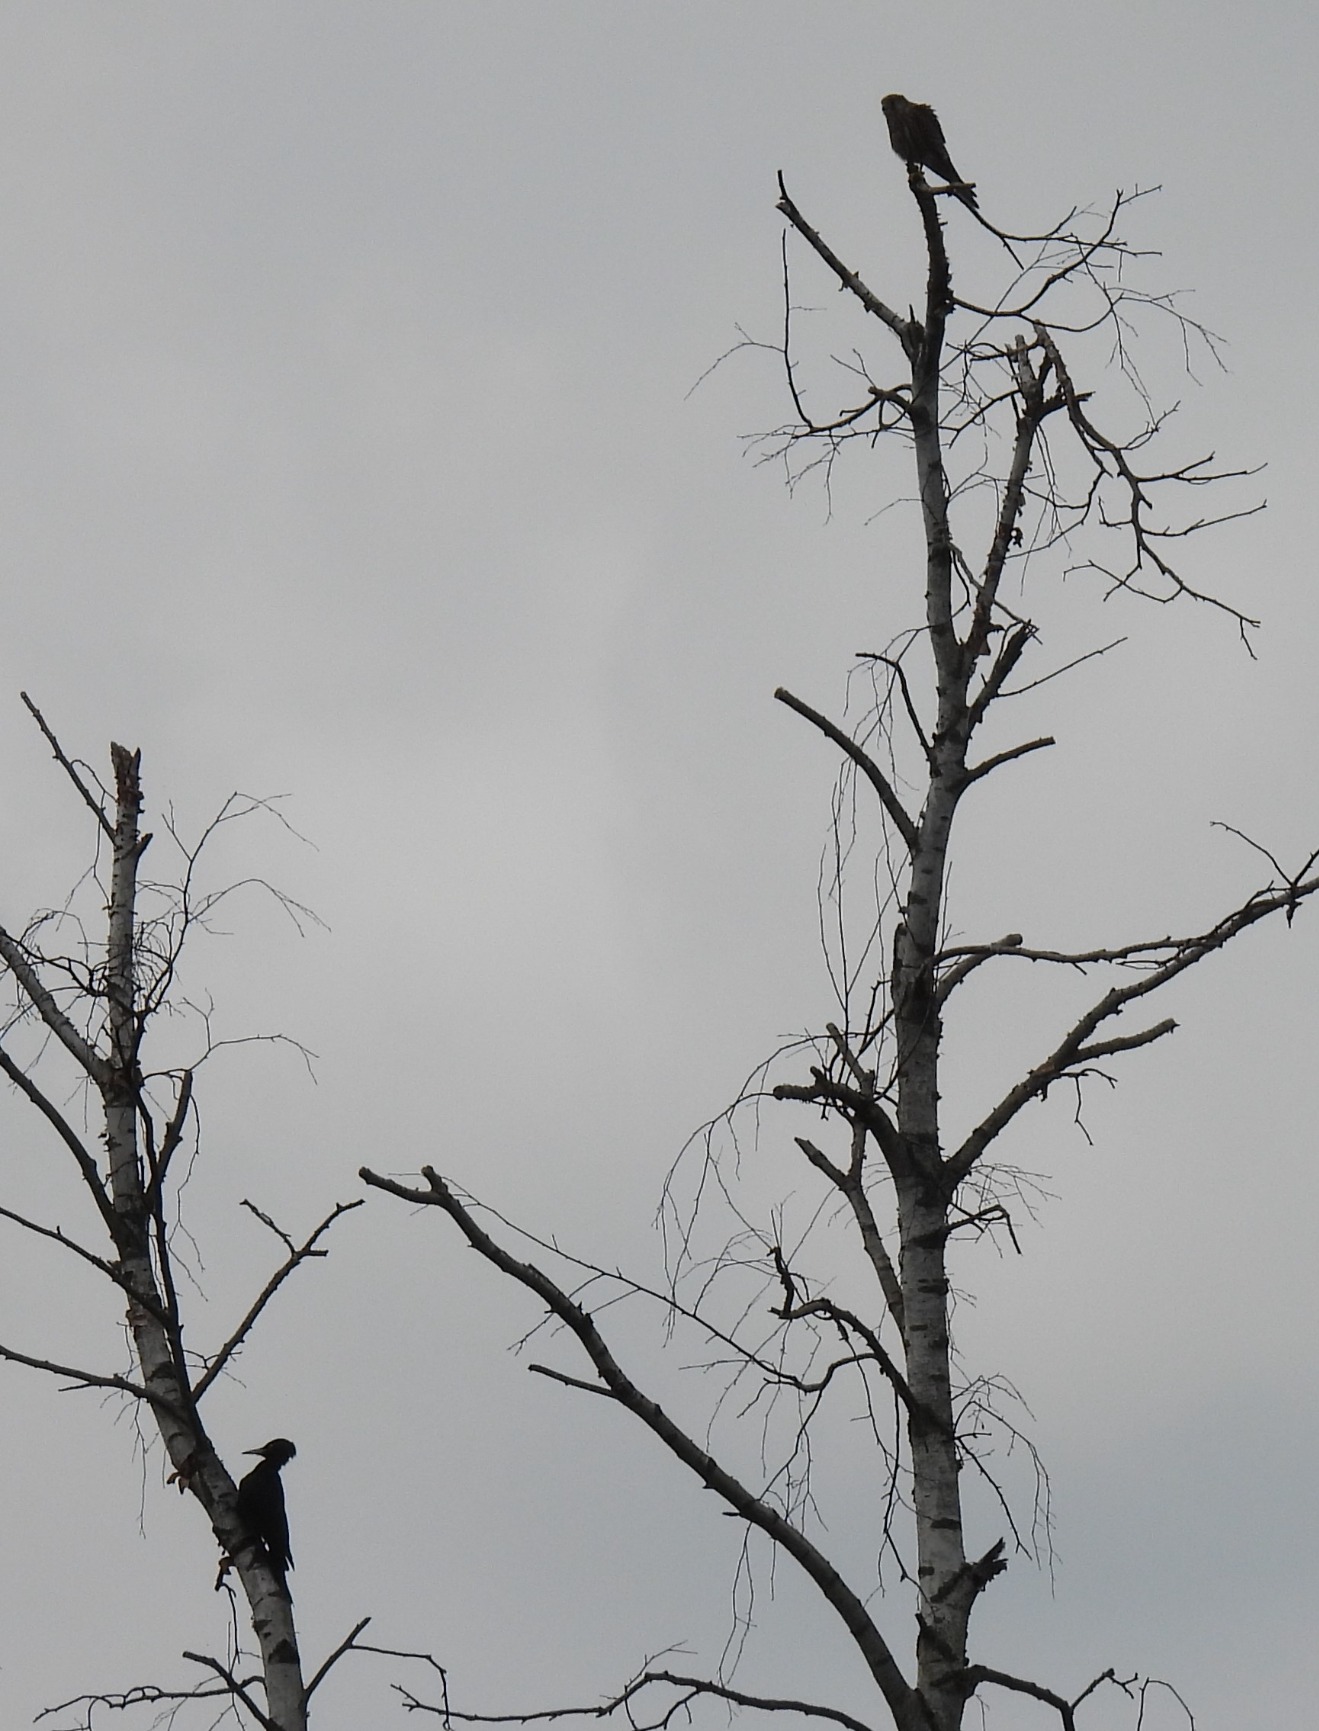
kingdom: Animalia
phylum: Chordata
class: Aves
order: Falconiformes
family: Falconidae
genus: Falco
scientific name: Falco tinnunculus
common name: Tårnfalk
